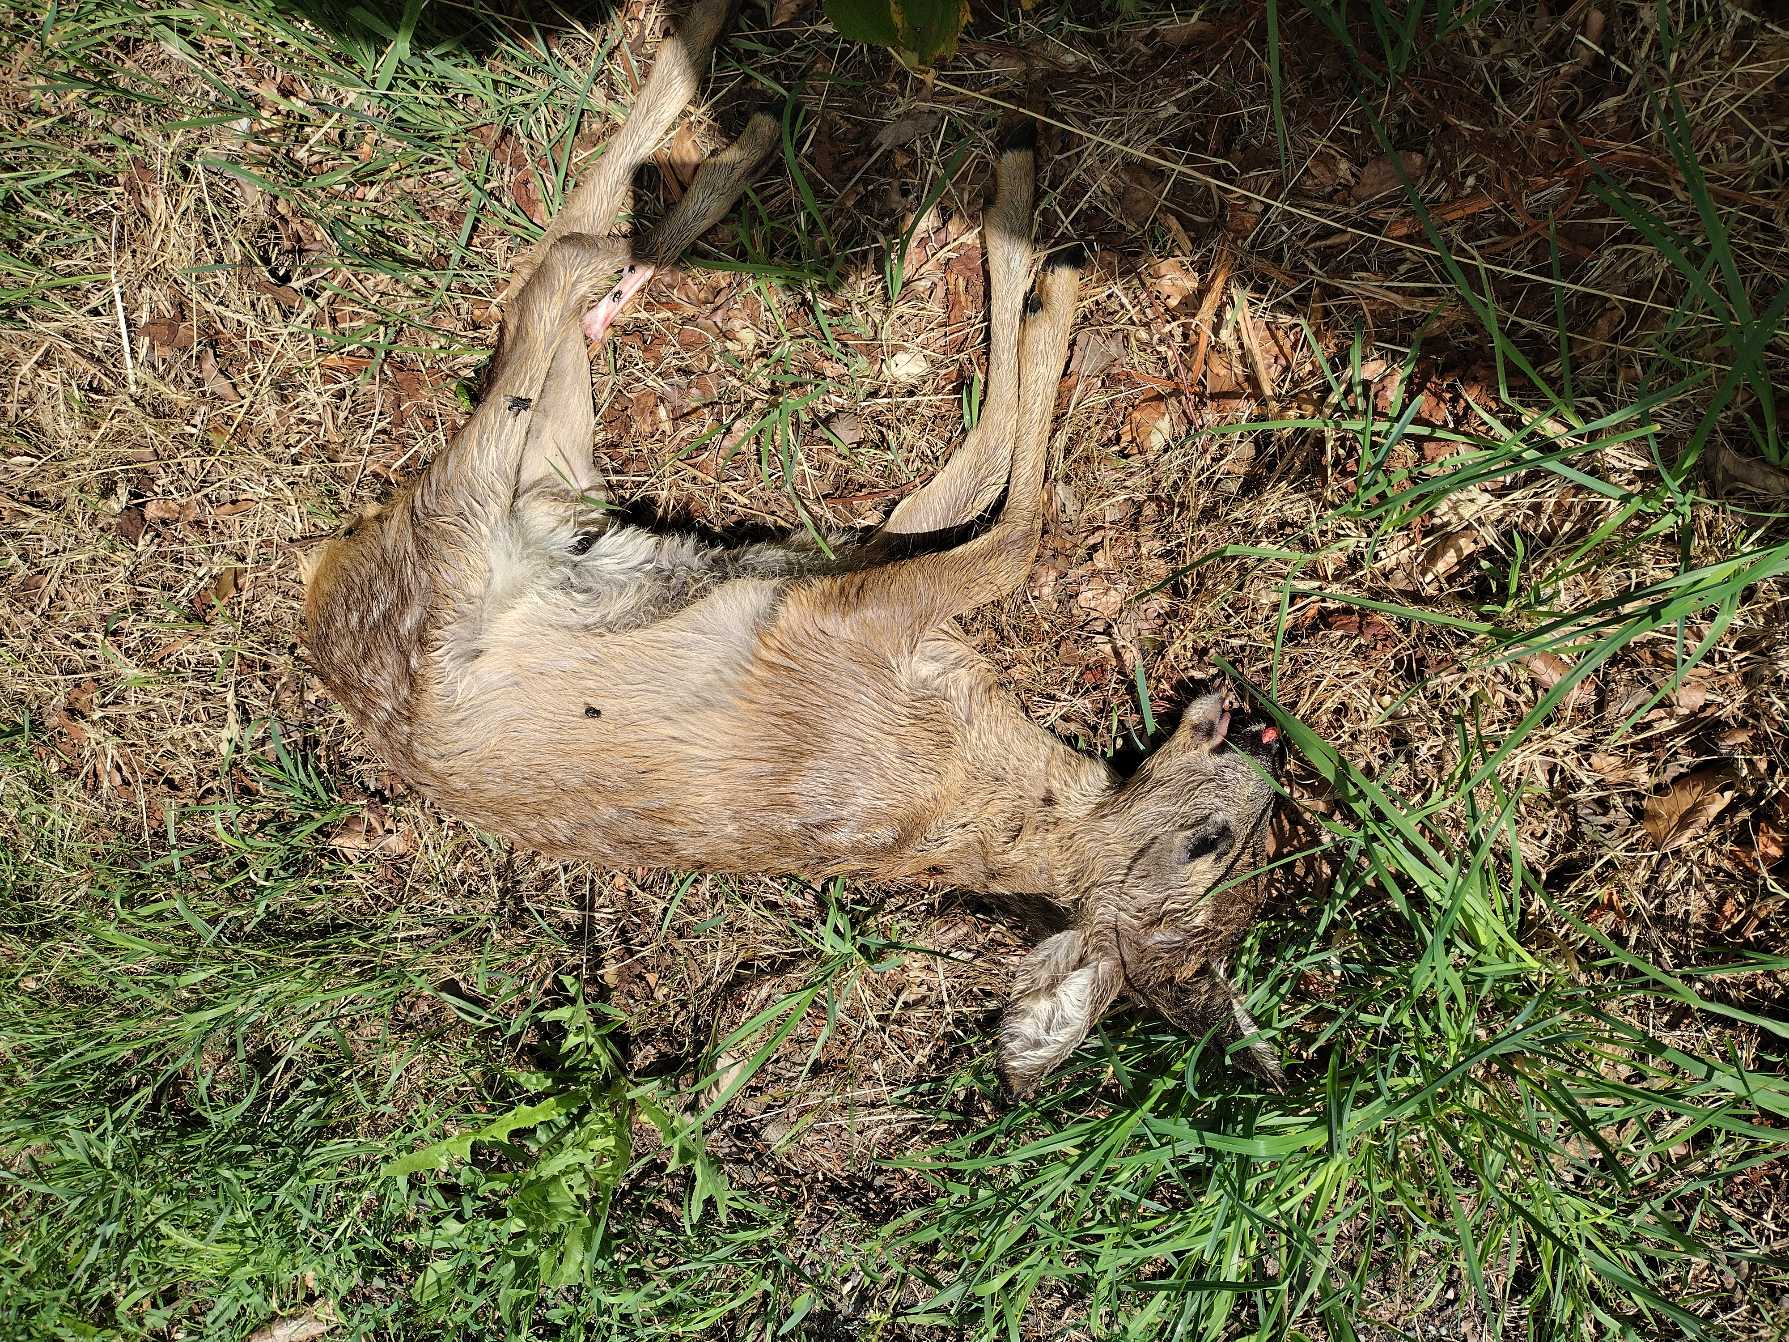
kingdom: Animalia
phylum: Chordata
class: Mammalia
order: Artiodactyla
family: Cervidae
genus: Capreolus
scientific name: Capreolus capreolus
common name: Rådyr
